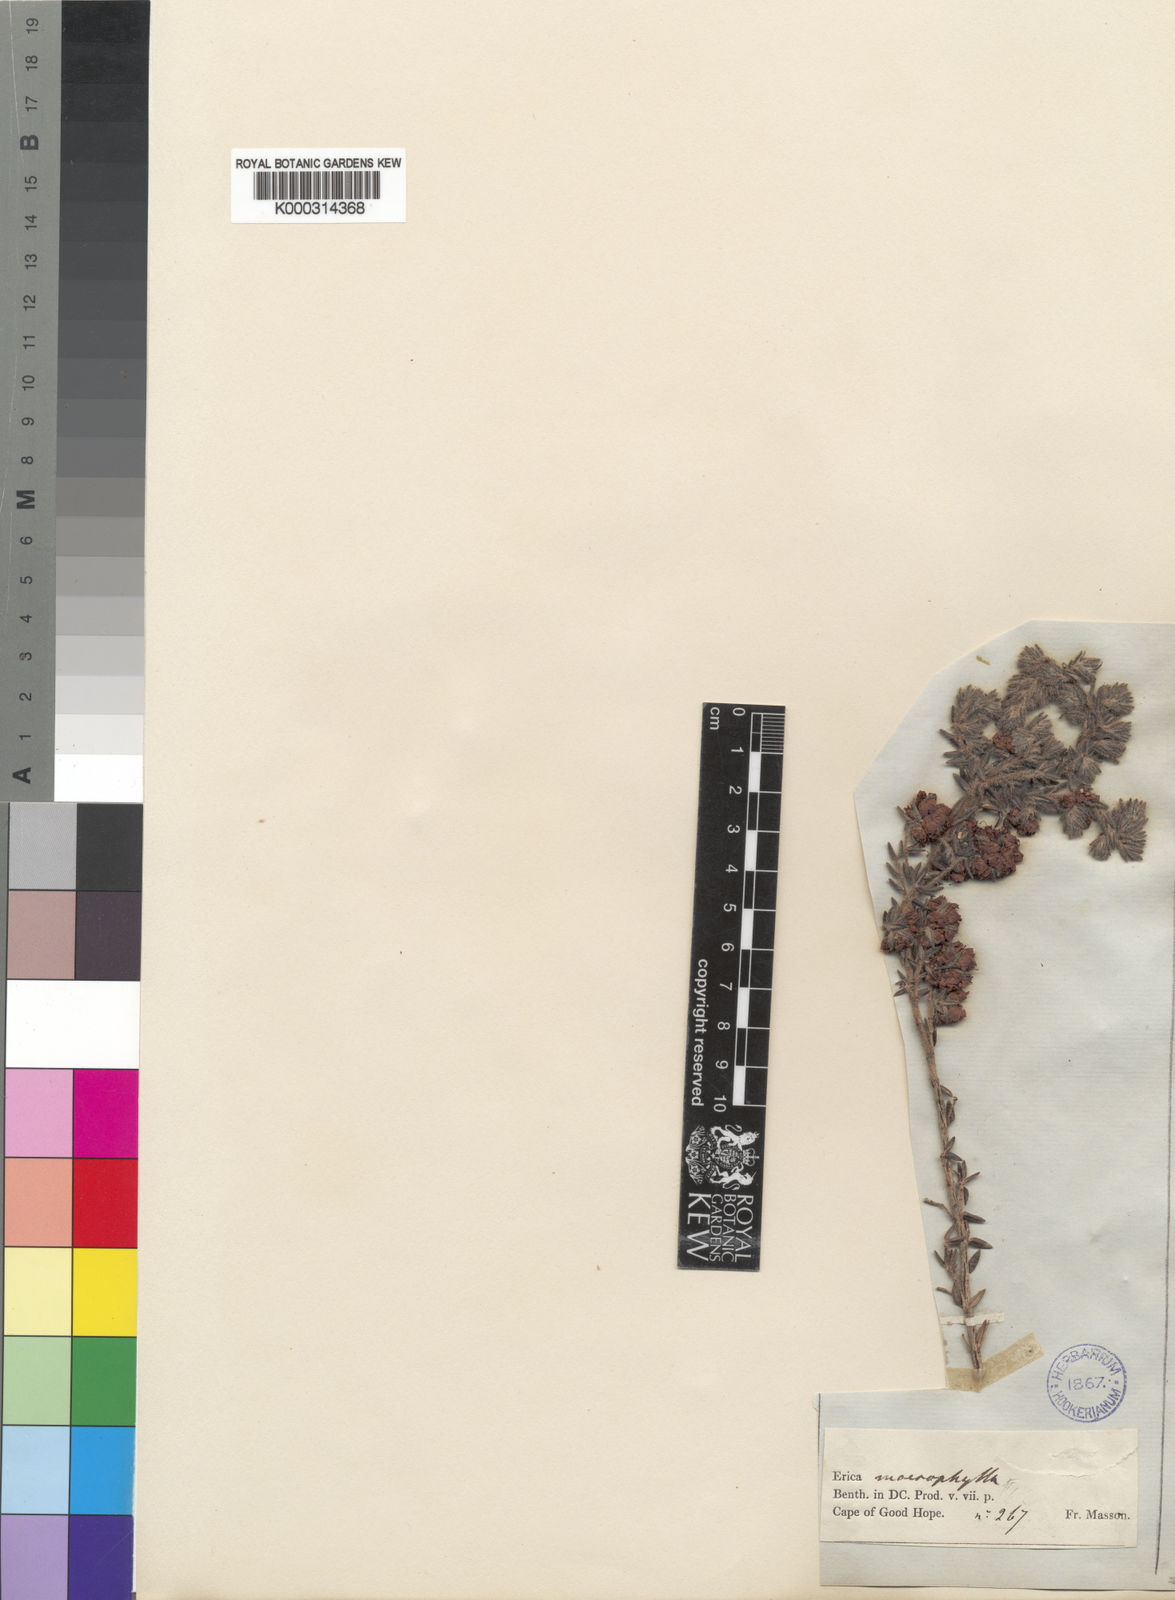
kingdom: Plantae
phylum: Tracheophyta
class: Magnoliopsida
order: Ericales
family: Ericaceae
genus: Erica
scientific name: Erica macrophylla
